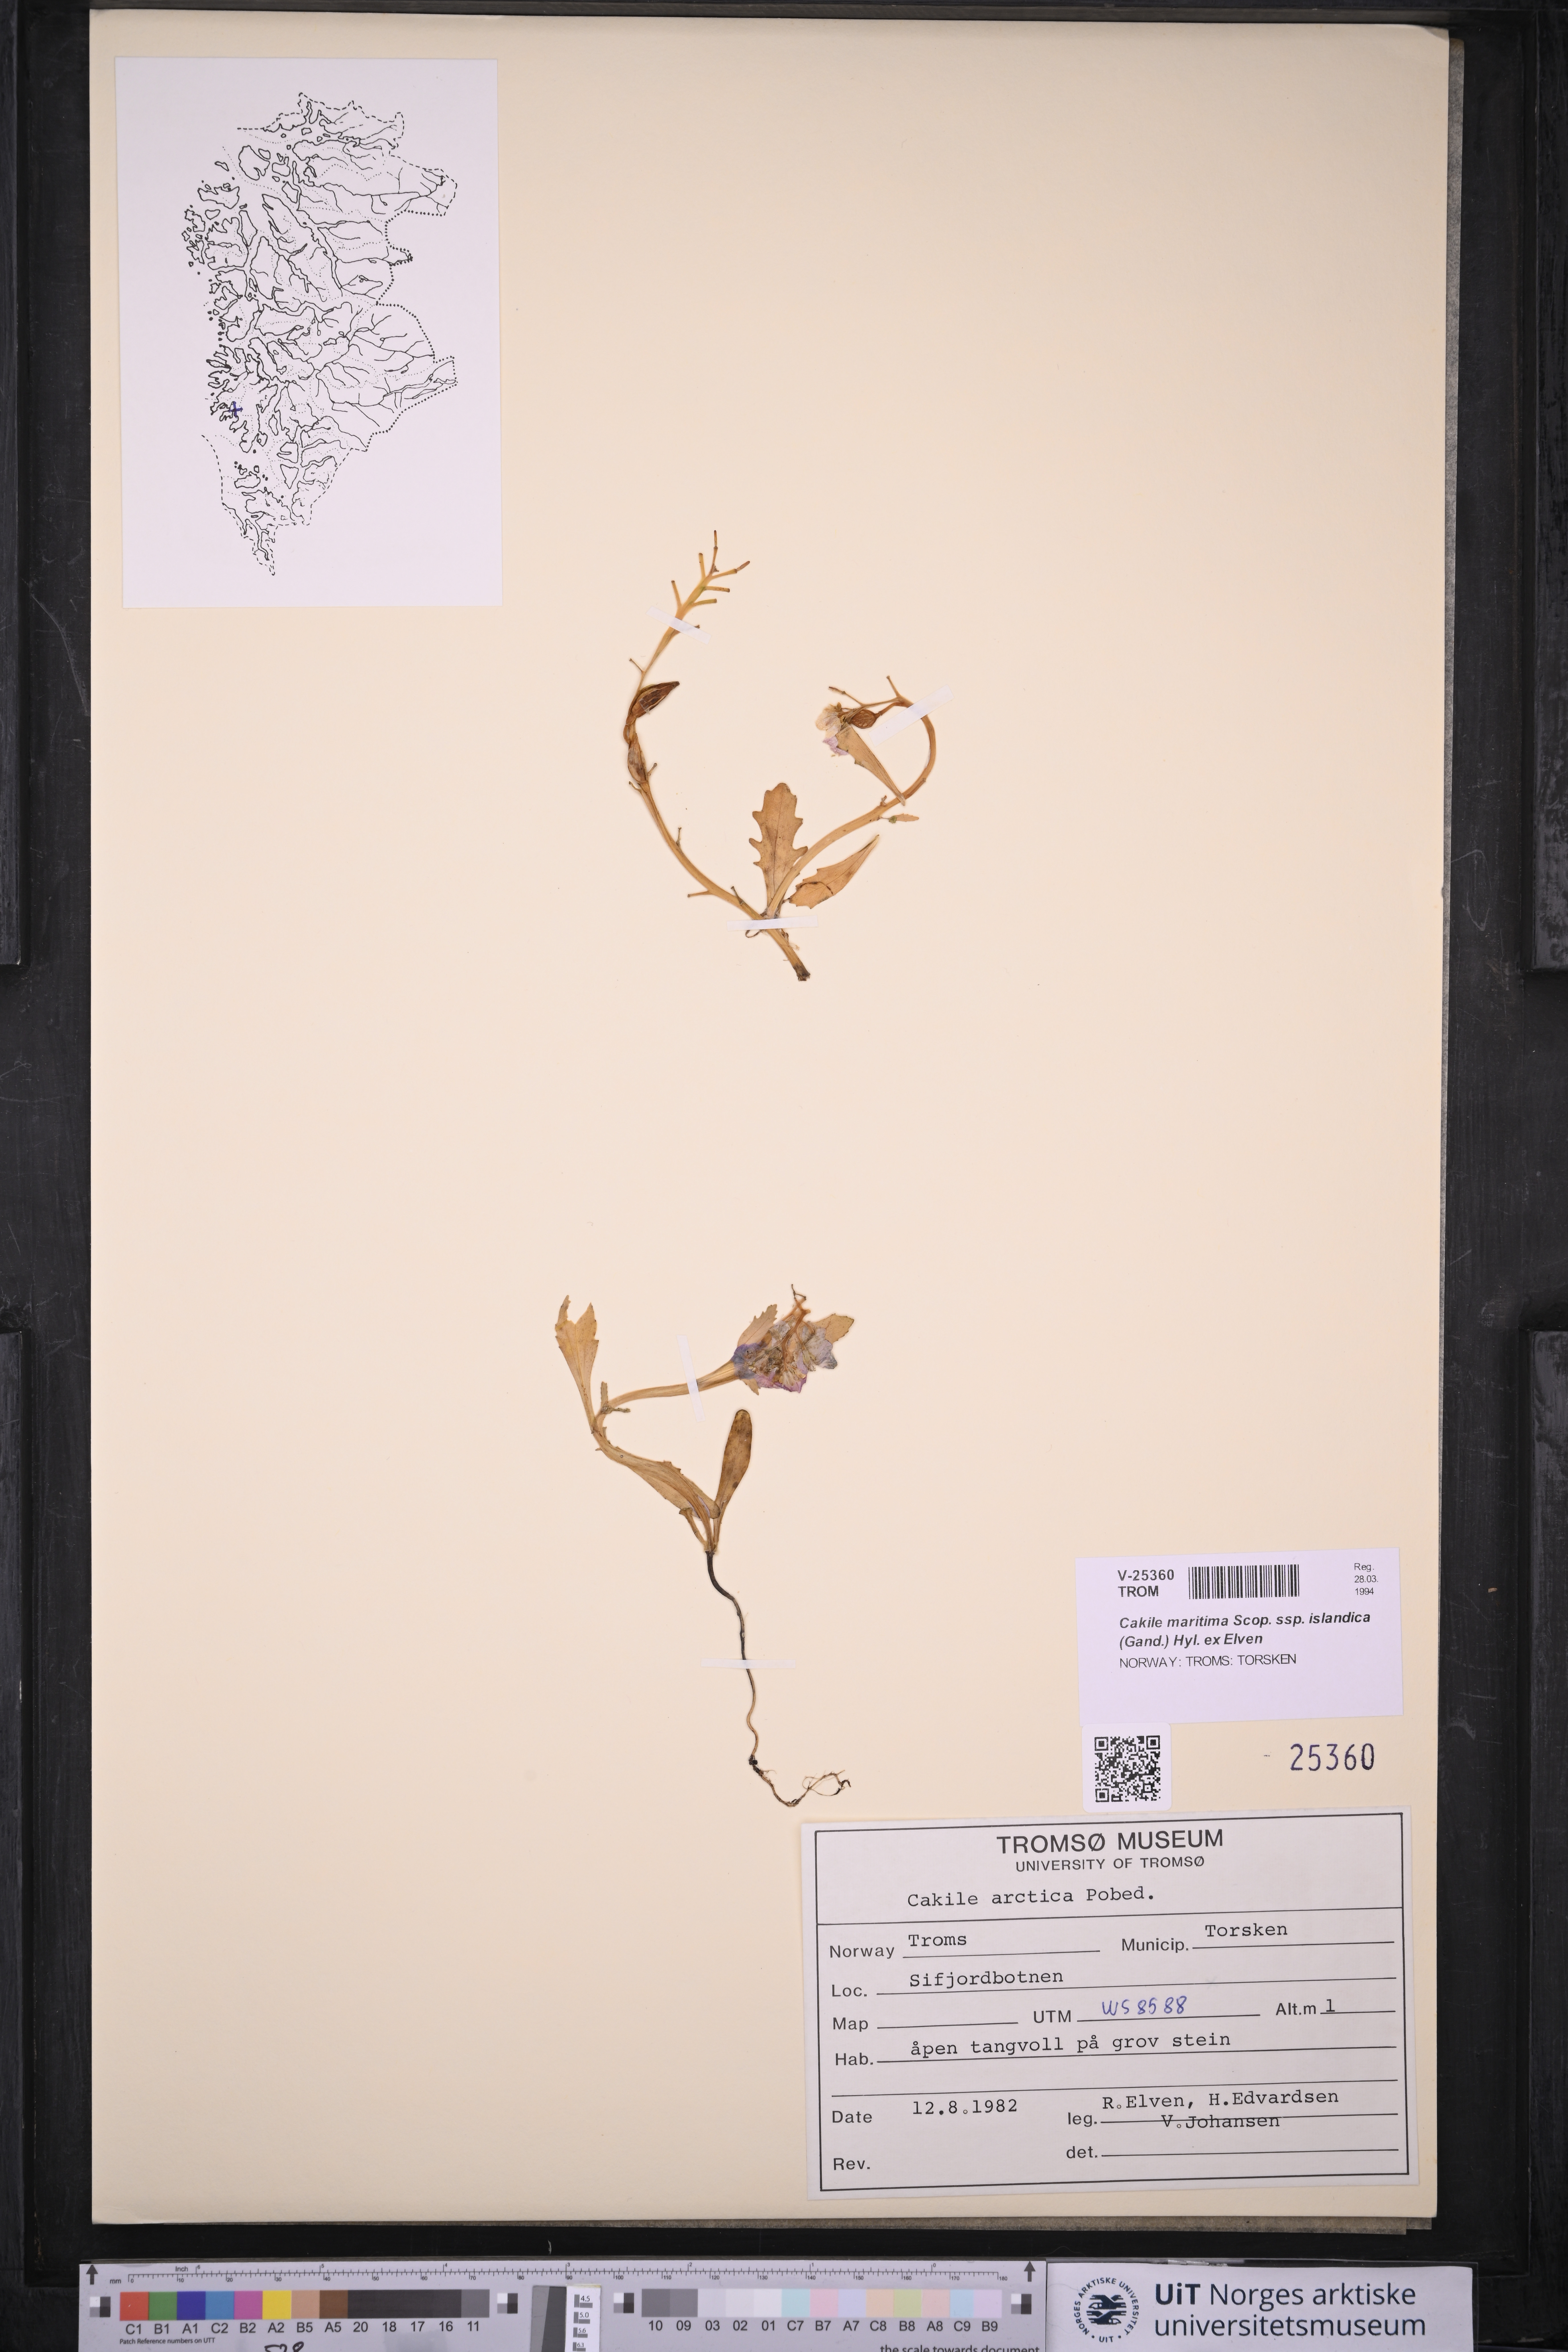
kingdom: Plantae
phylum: Tracheophyta
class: Magnoliopsida
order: Brassicales
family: Brassicaceae
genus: Cakile
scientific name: Cakile arctica
